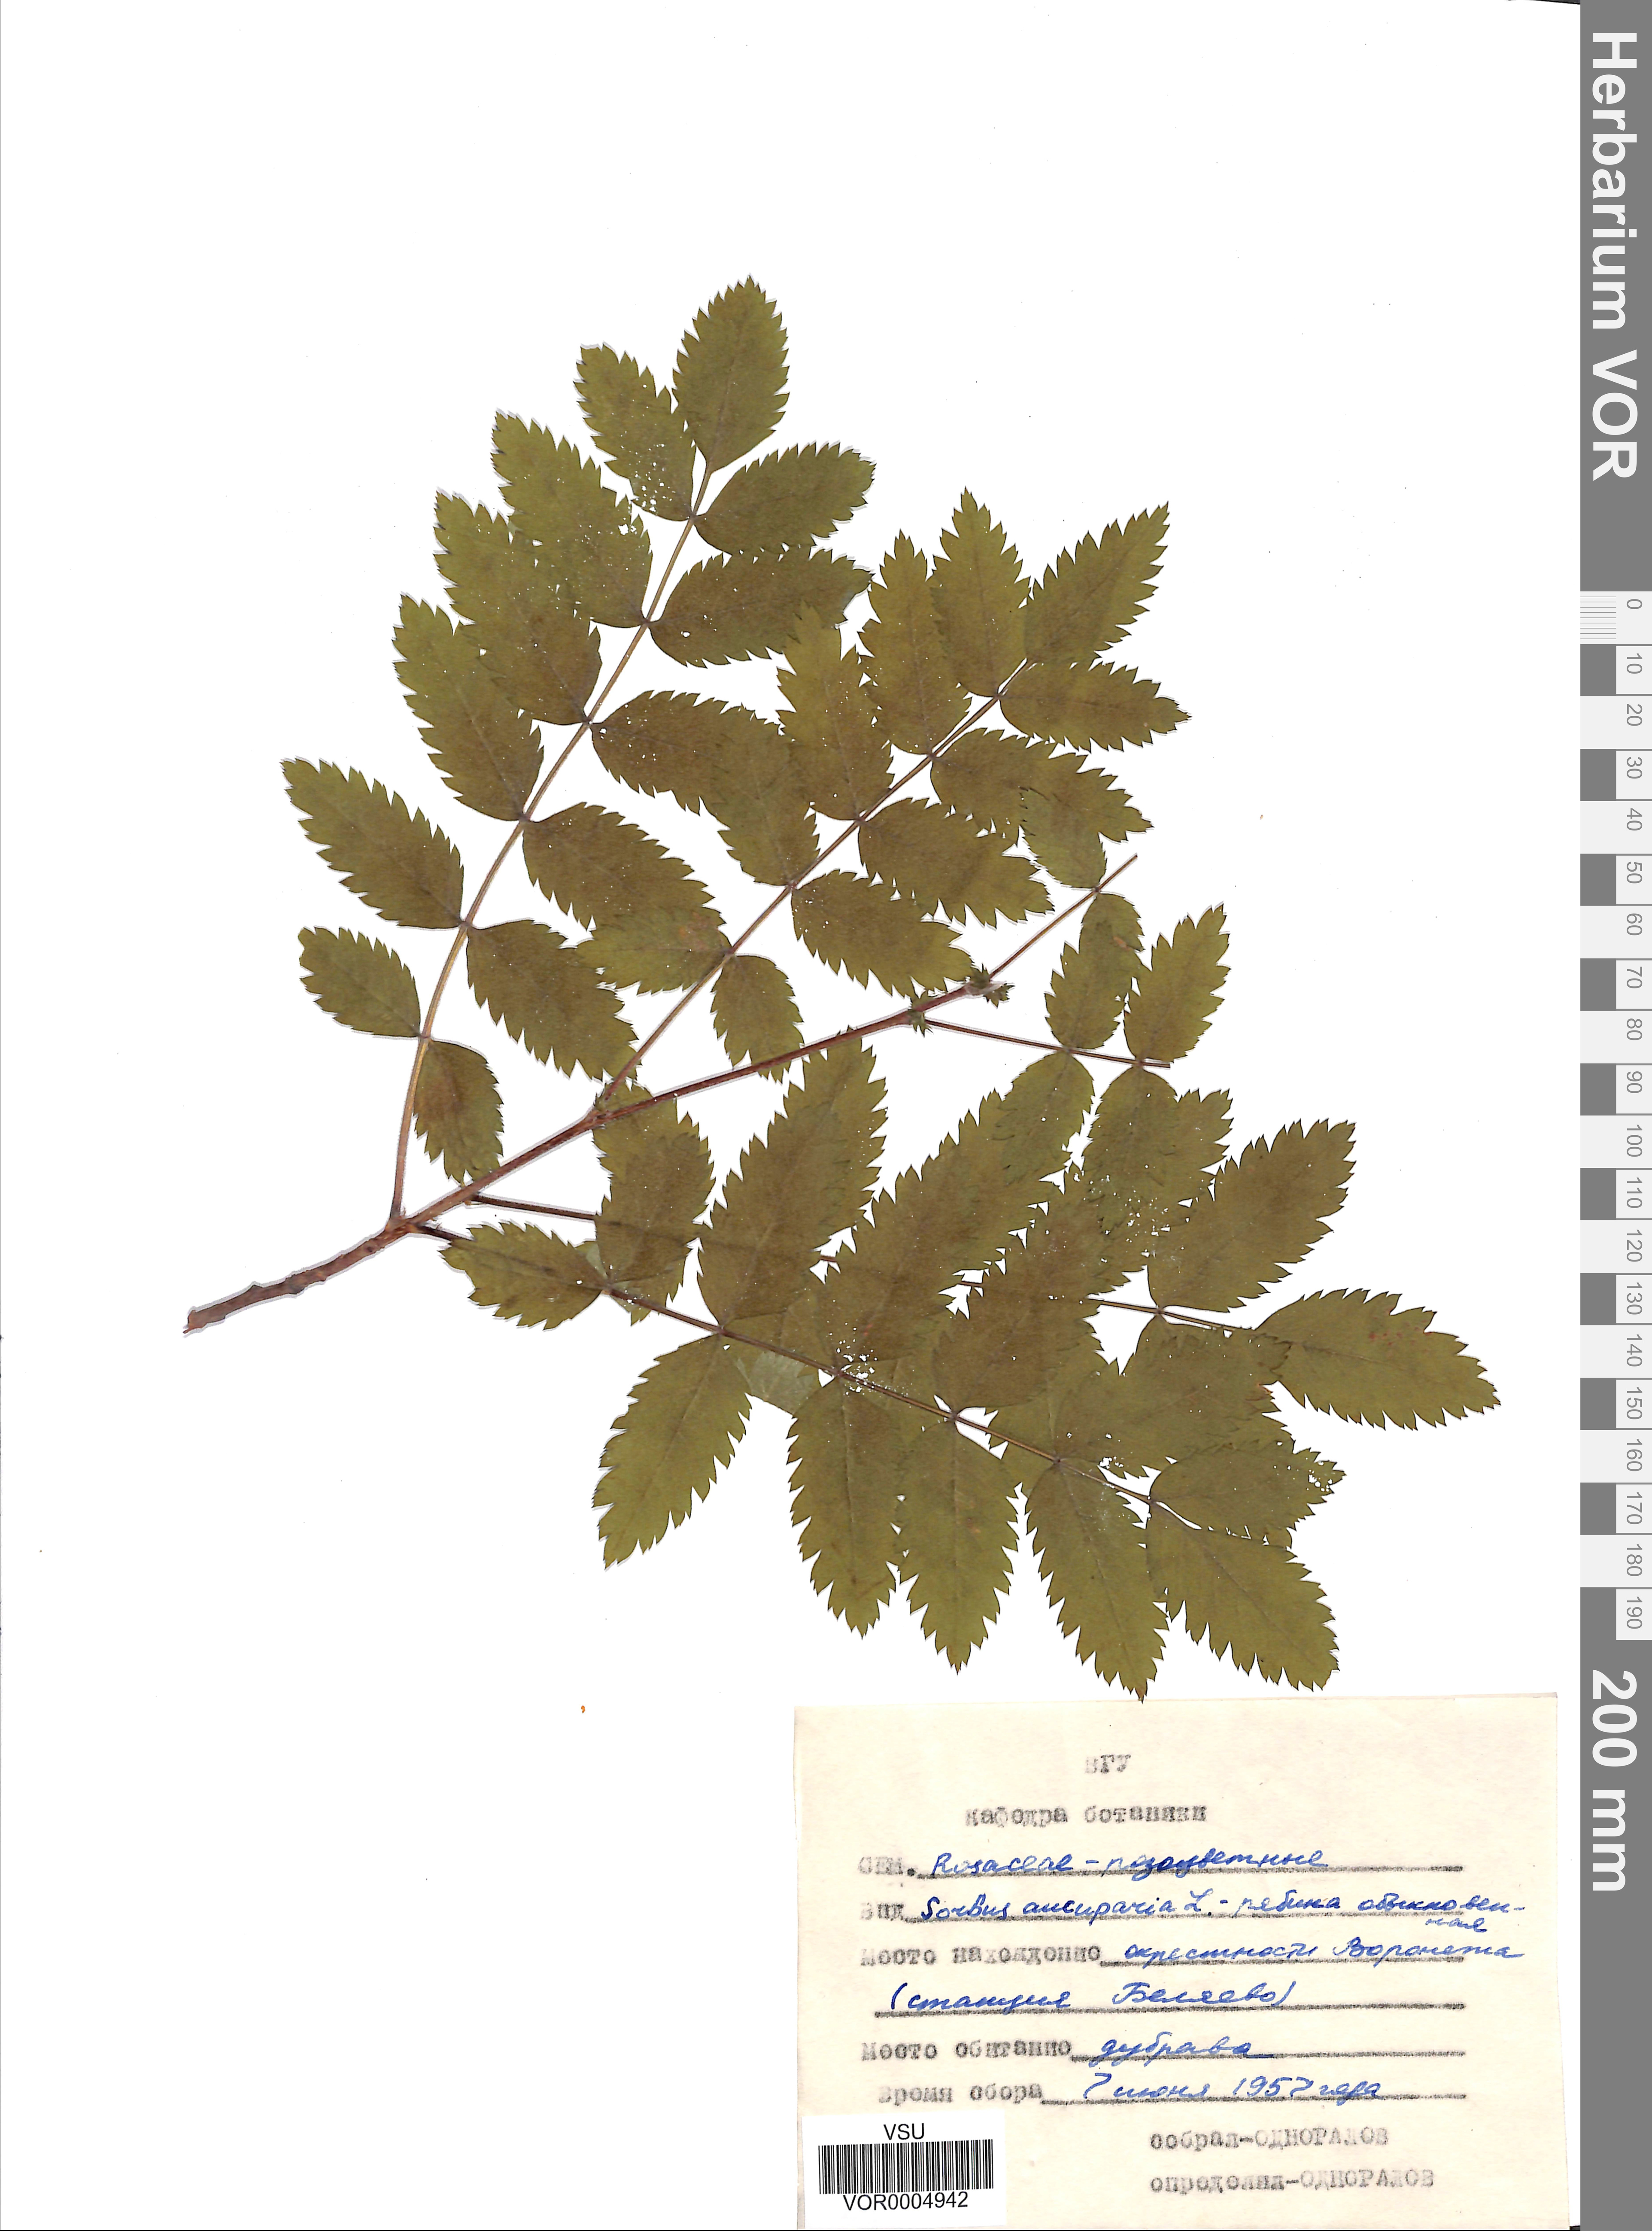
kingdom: Plantae
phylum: Tracheophyta
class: Magnoliopsida
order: Rosales
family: Rosaceae
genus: Sorbus
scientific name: Sorbus aucuparia
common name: Rowan
